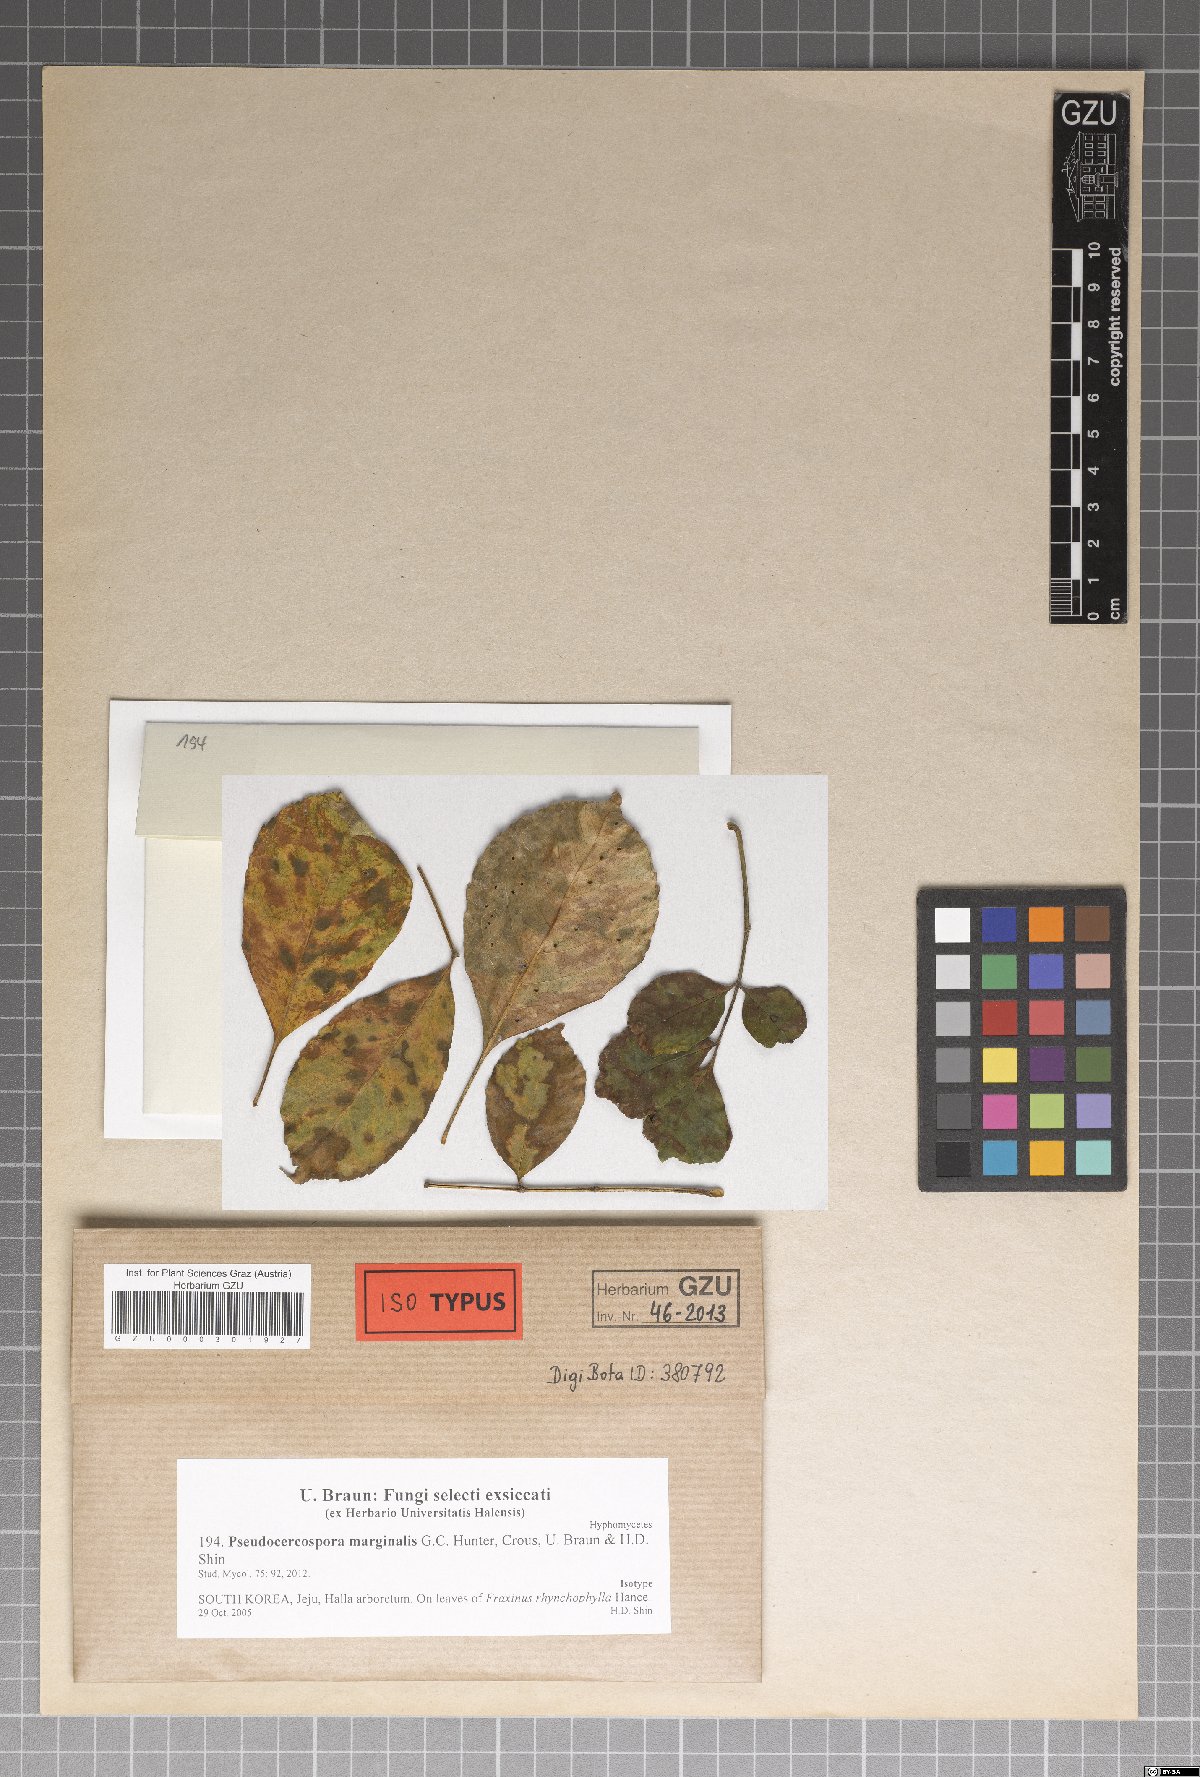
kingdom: Fungi
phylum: Ascomycota
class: Dothideomycetes
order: Mycosphaerellales
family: Mycosphaerellaceae
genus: Pseudocercospora
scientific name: Pseudocercospora marginalis
